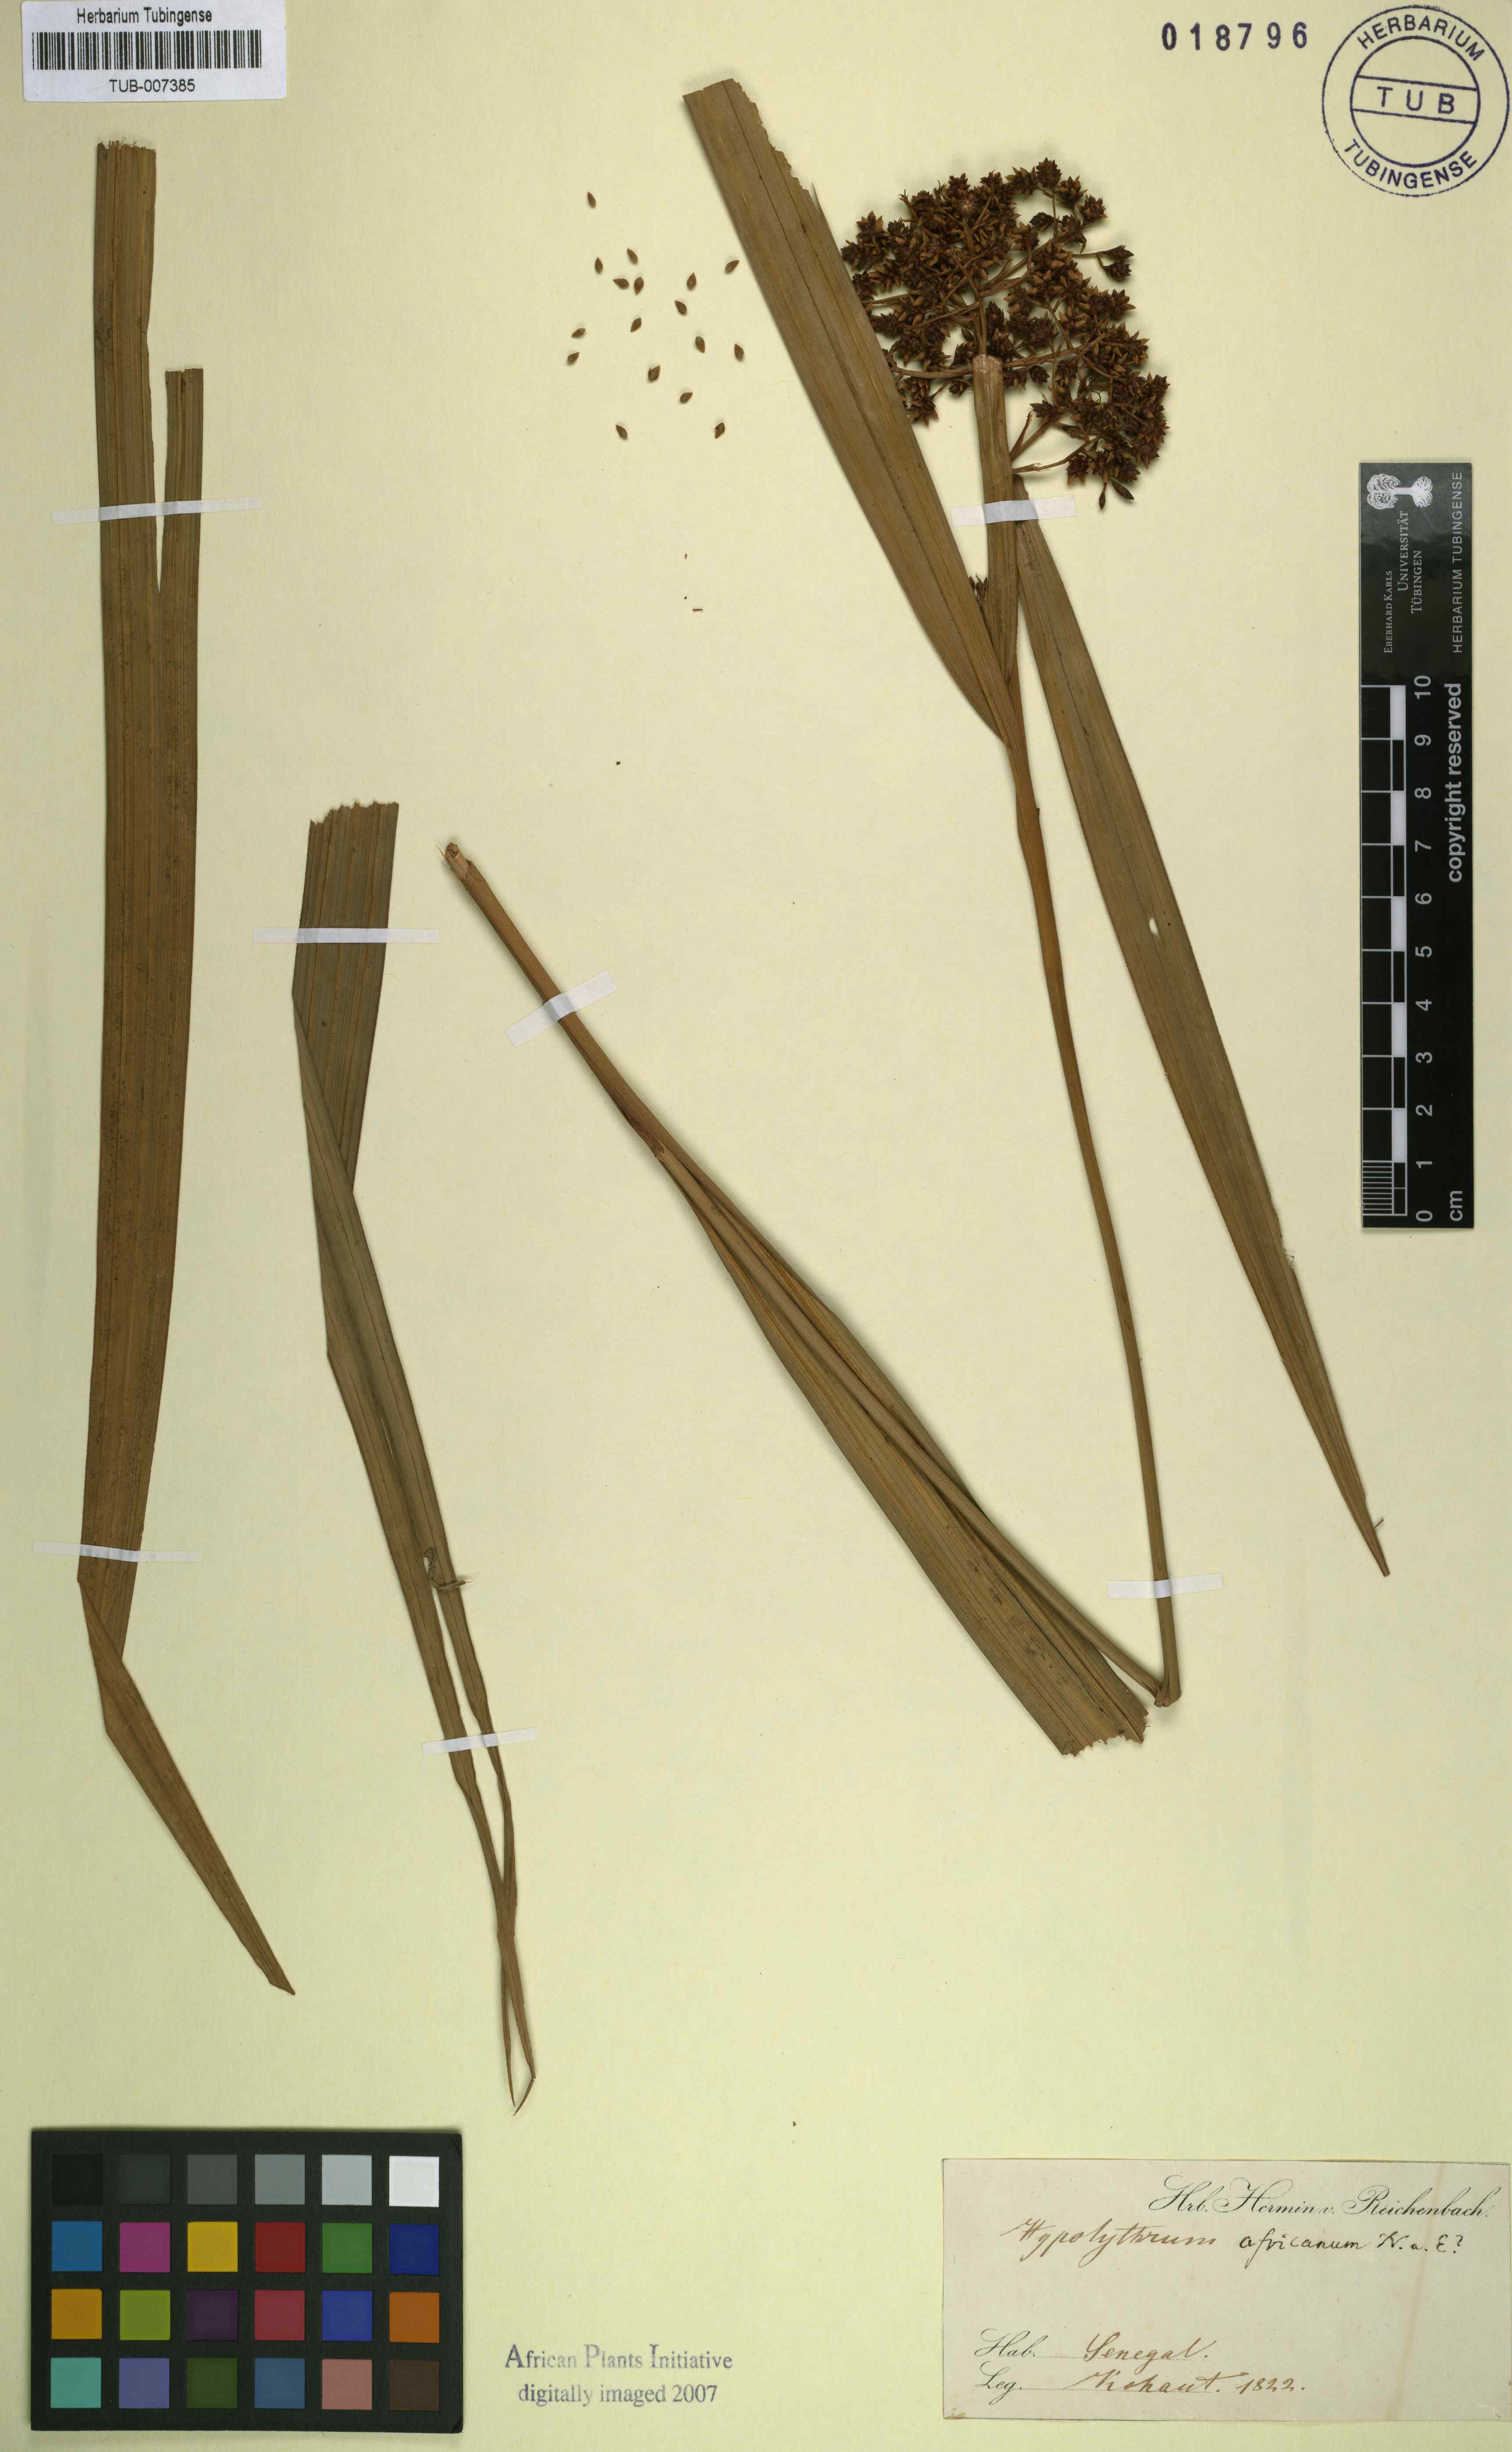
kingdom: Plantae
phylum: Tracheophyta
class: Liliopsida
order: Poales
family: Cyperaceae
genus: Hypolytrum
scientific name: Hypolytrum africanum
